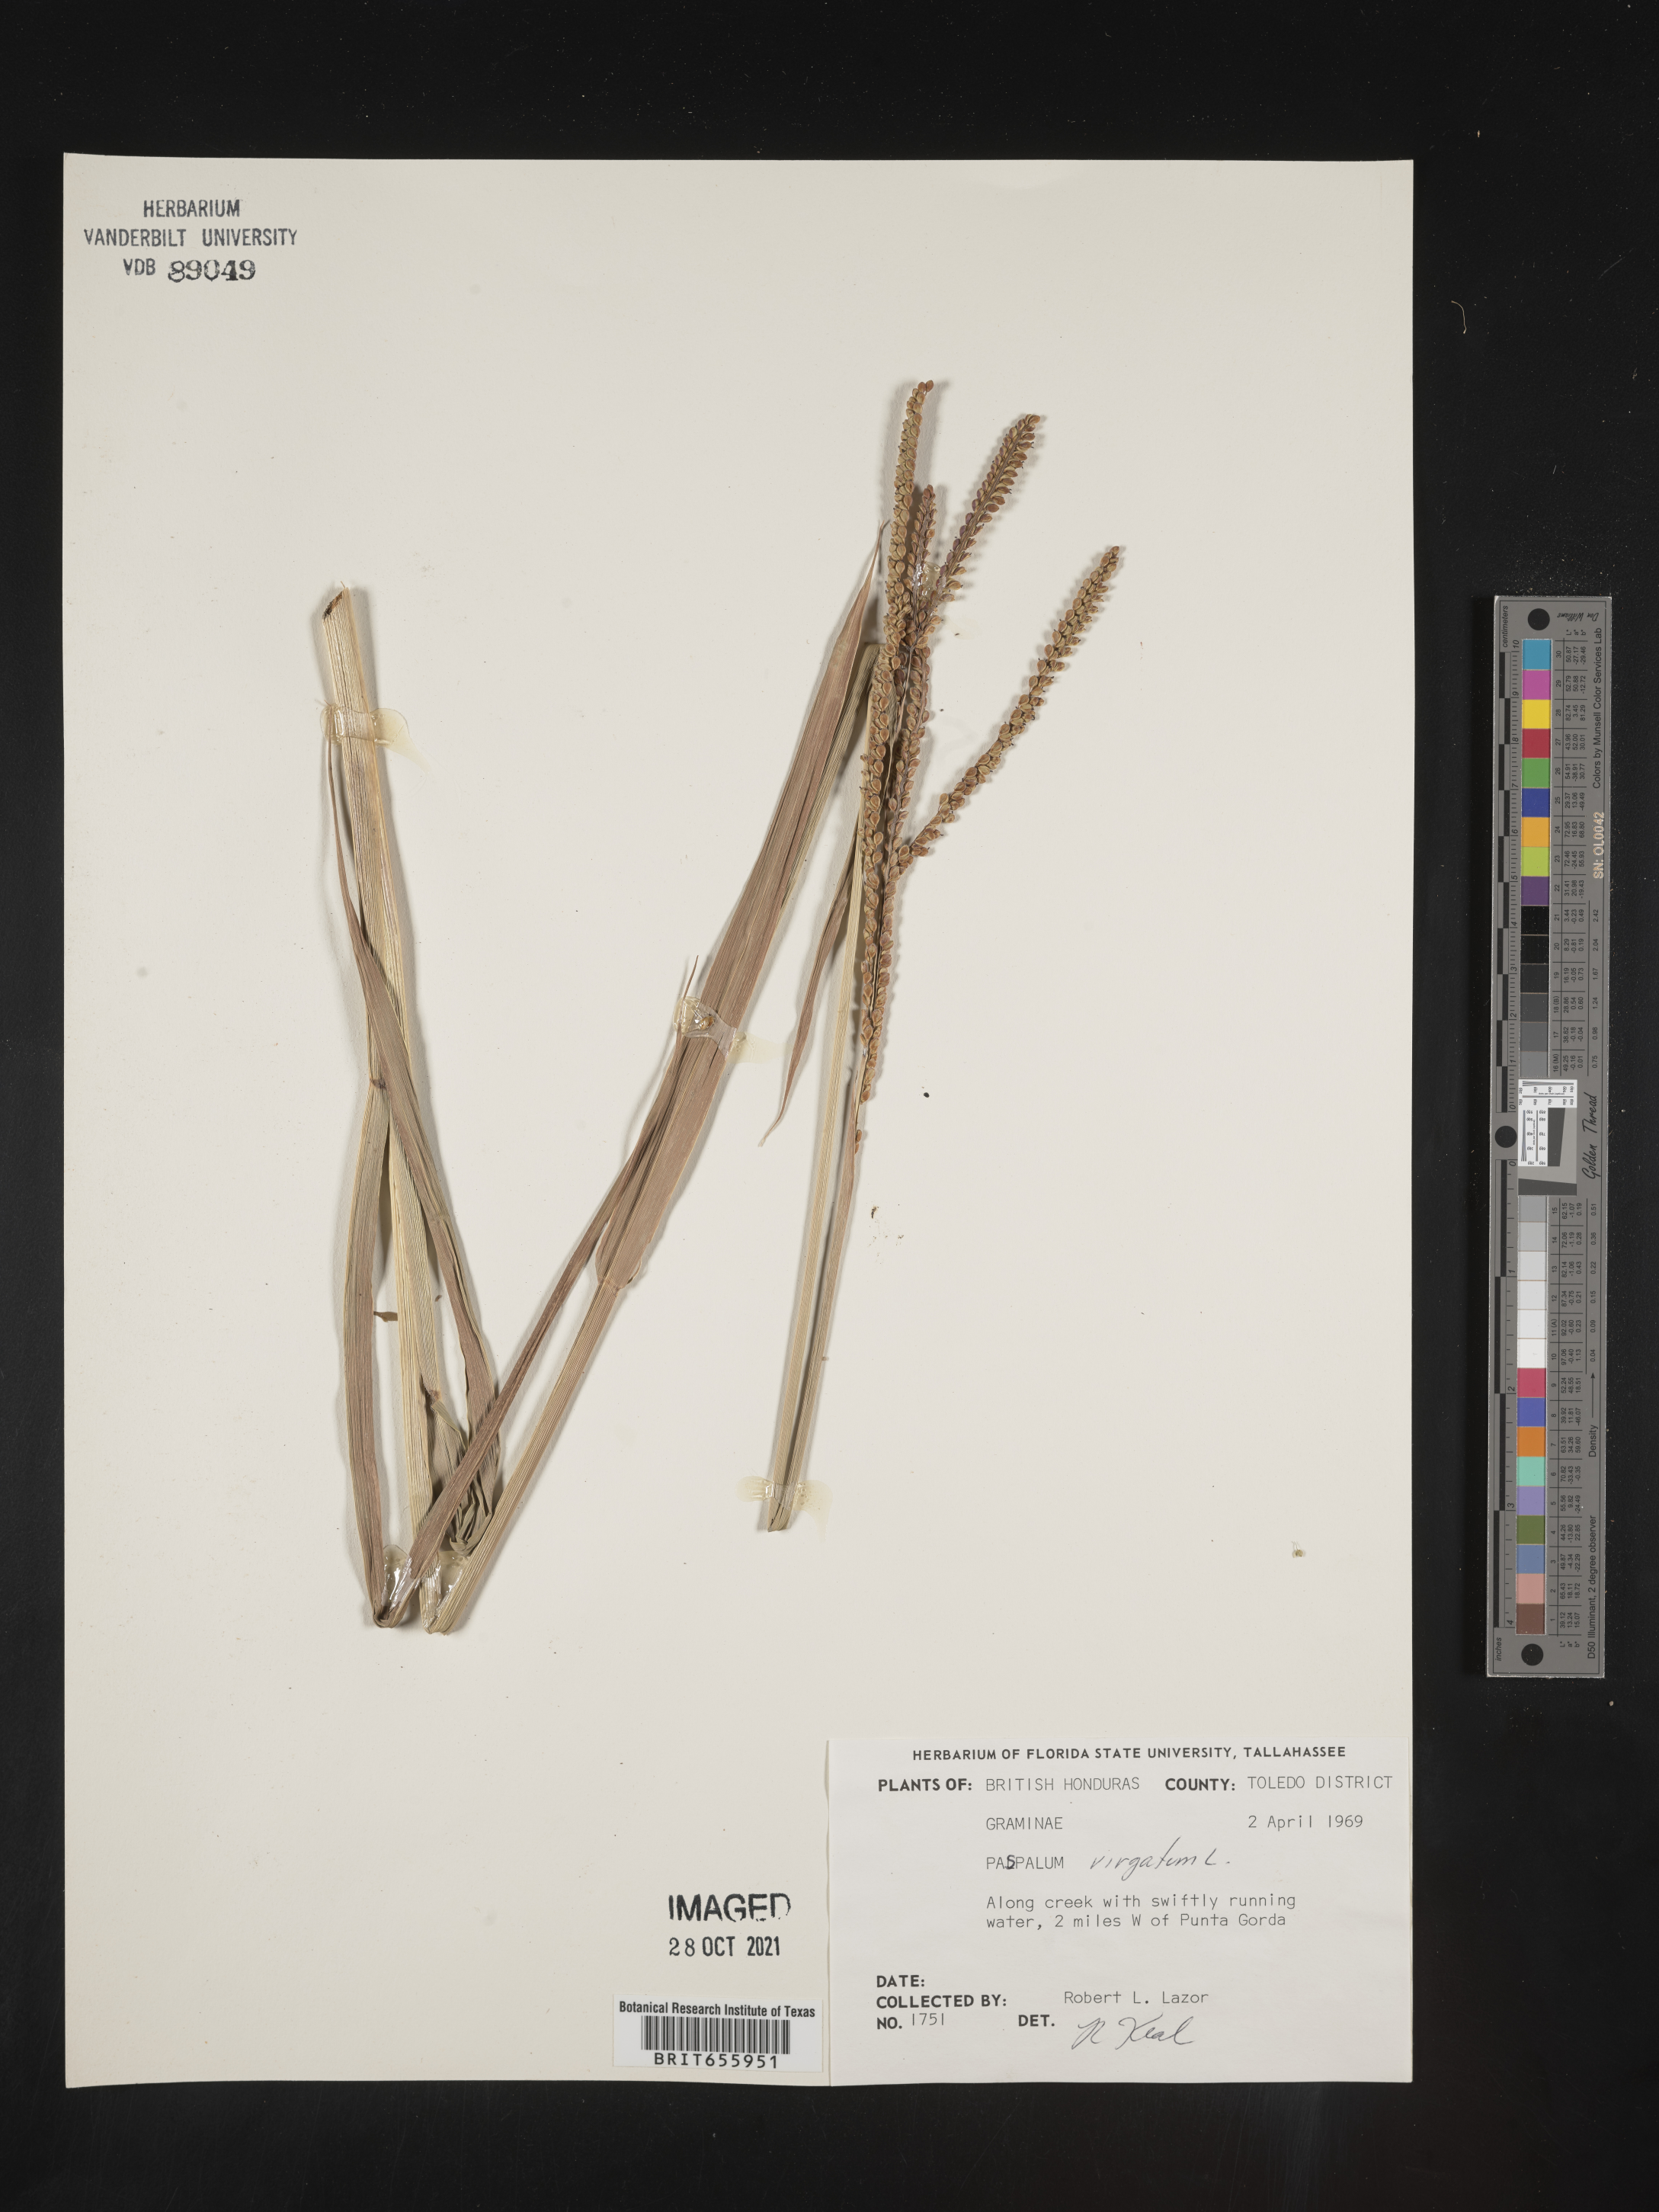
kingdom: Plantae
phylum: Tracheophyta
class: Liliopsida
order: Poales
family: Poaceae
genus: Paspalum
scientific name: Paspalum
